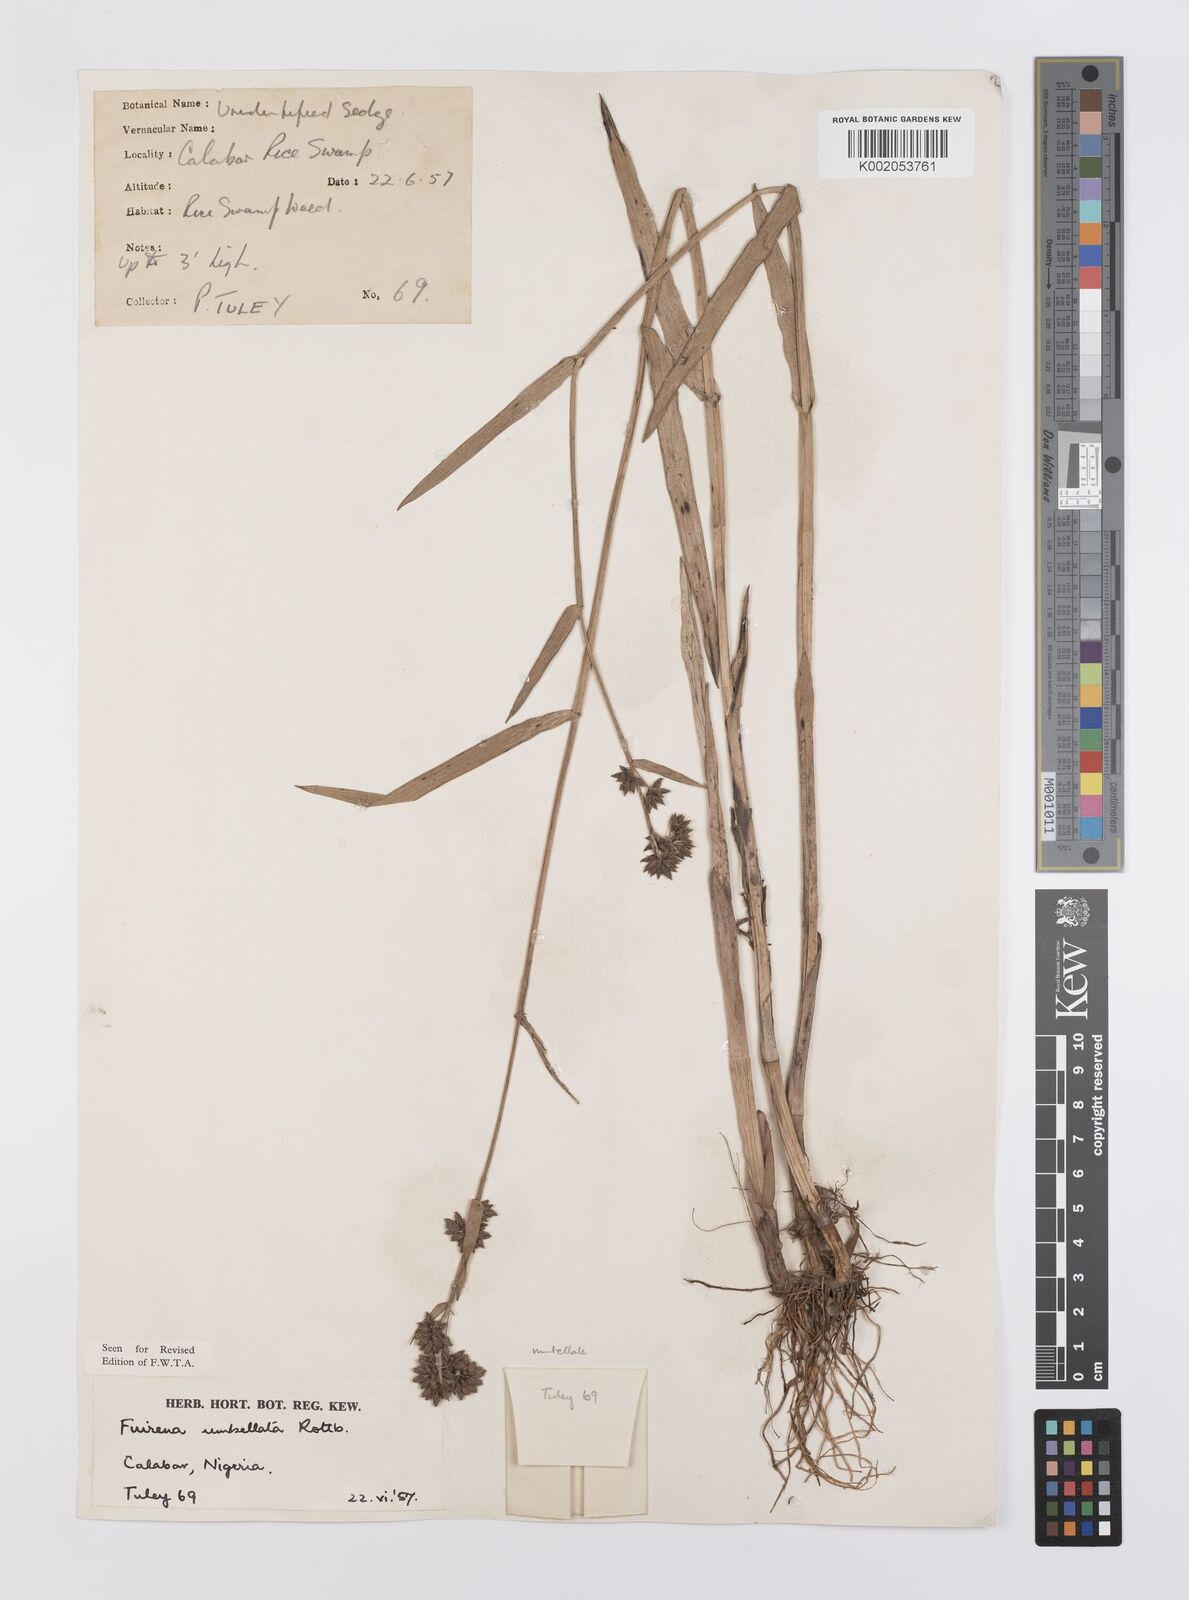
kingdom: Plantae
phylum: Tracheophyta
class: Liliopsida
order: Poales
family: Cyperaceae
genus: Fuirena
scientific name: Fuirena umbellata
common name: Yefen
